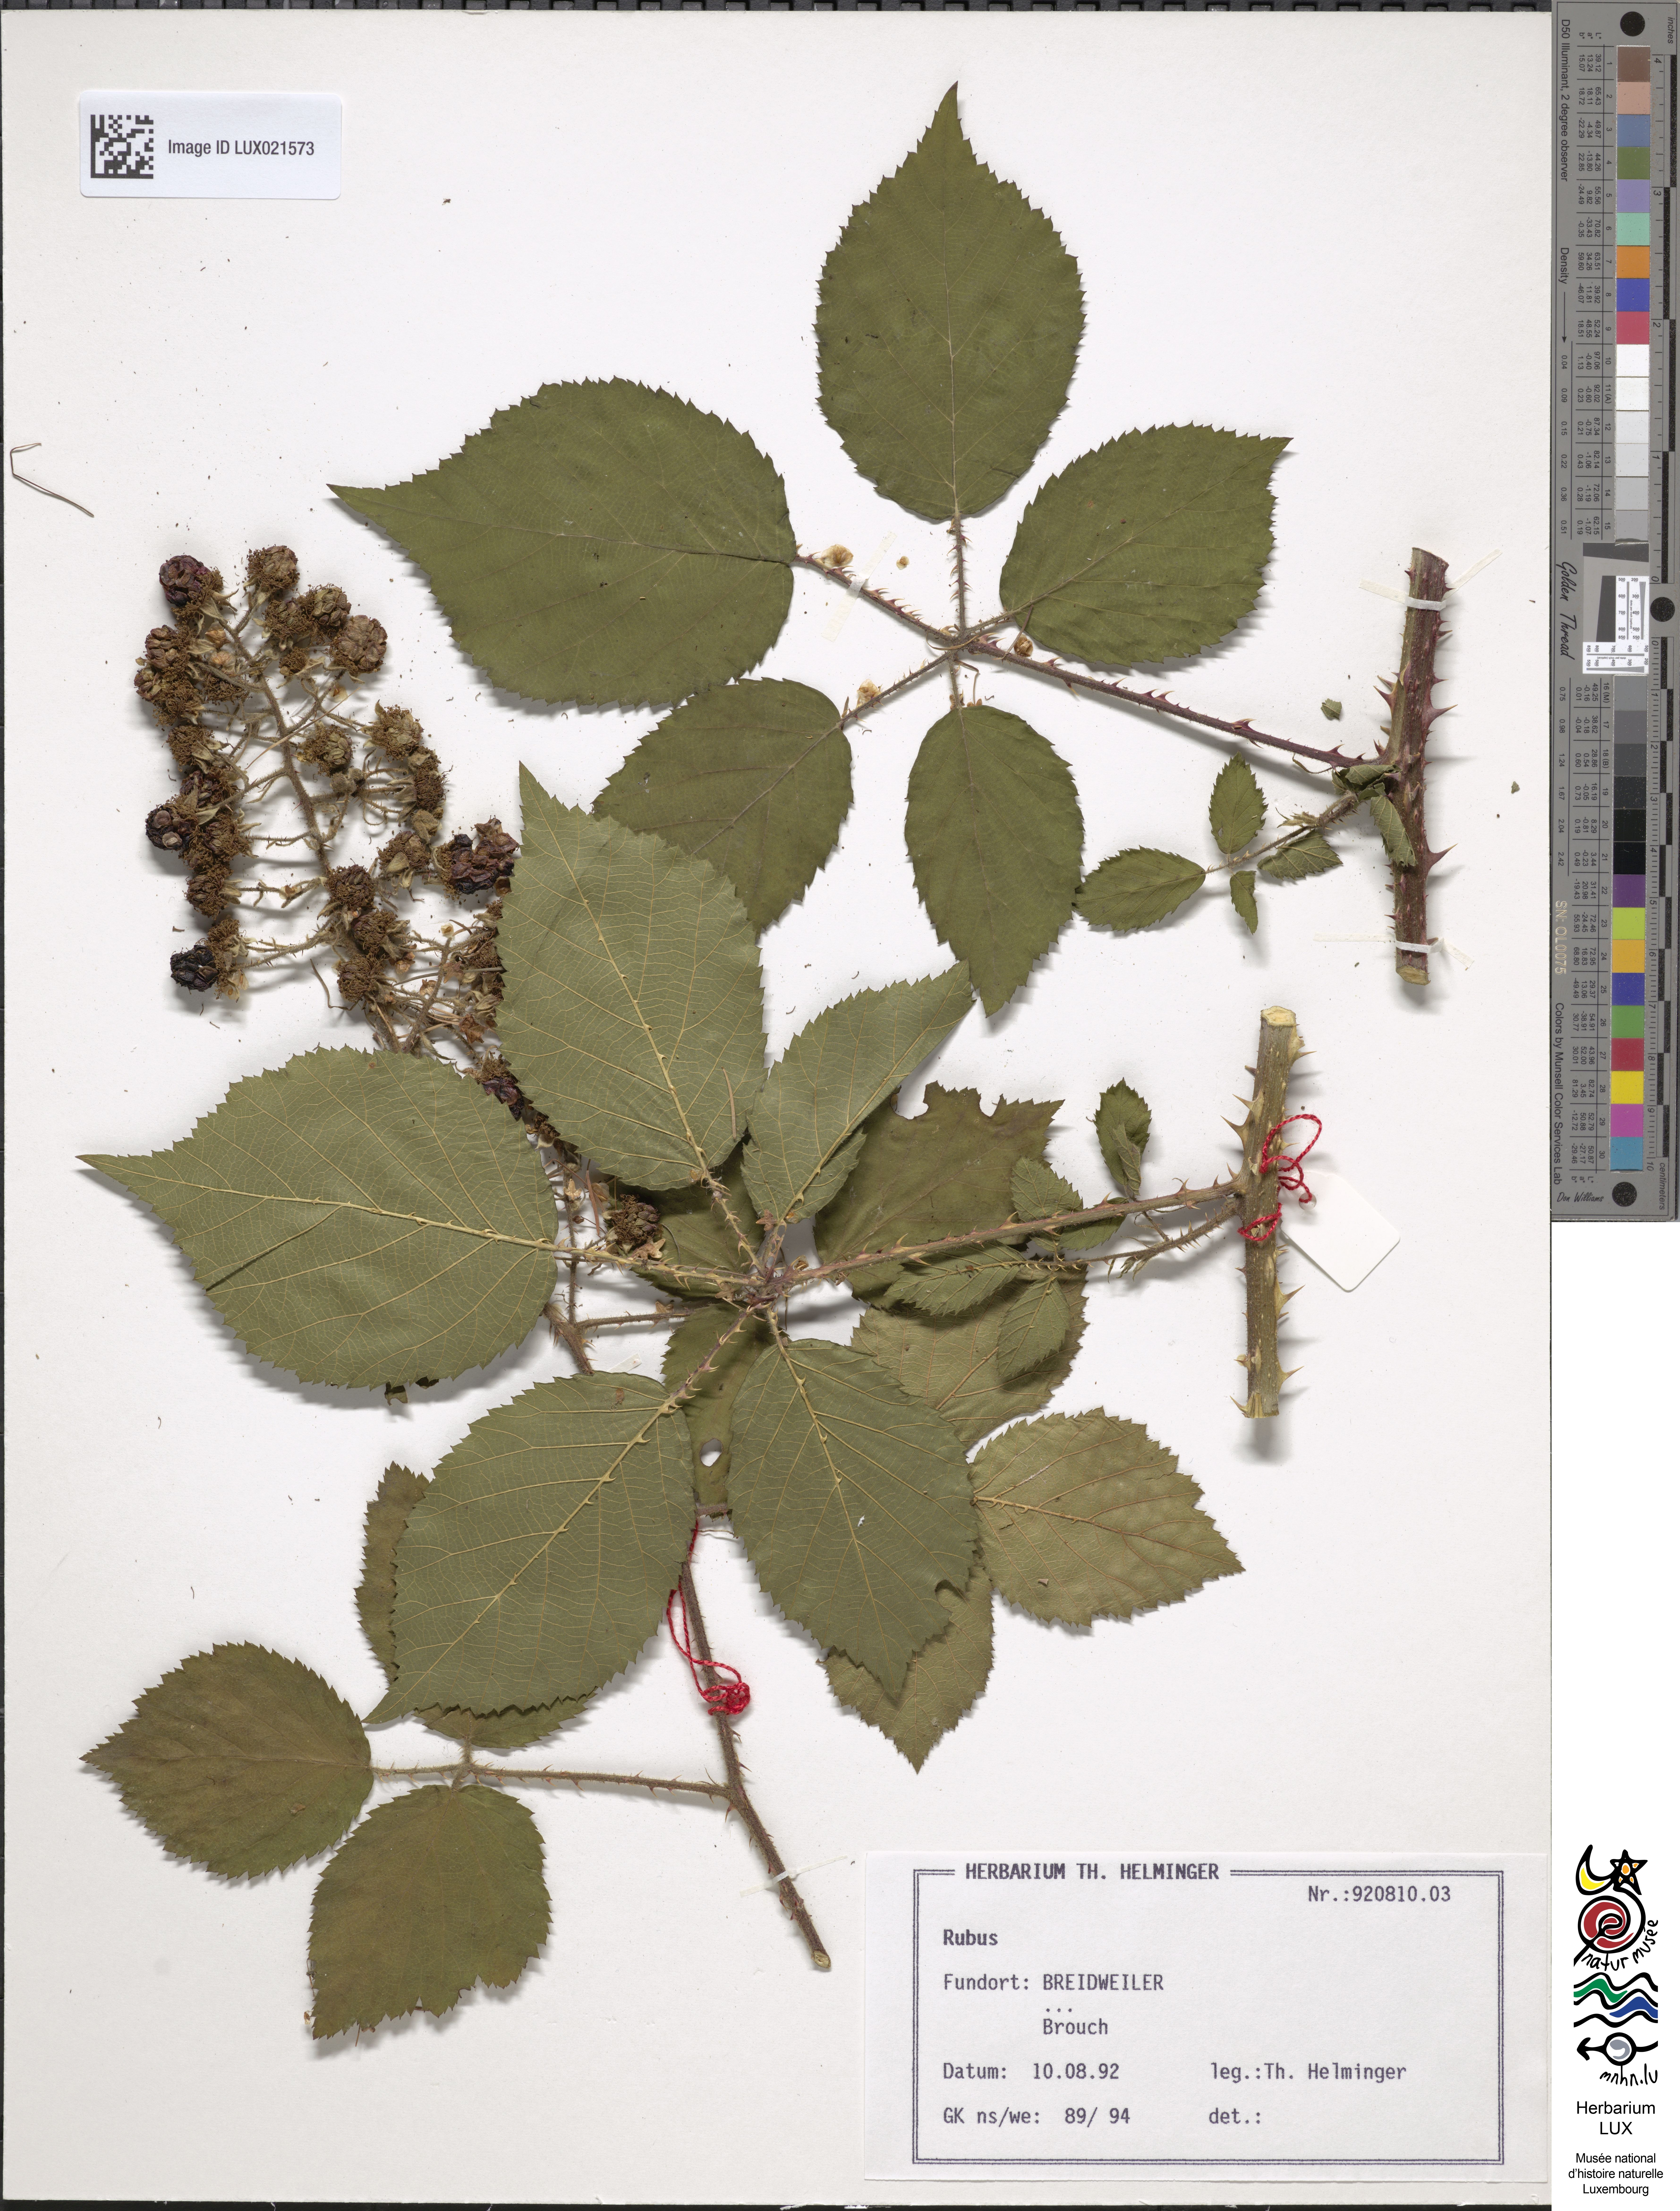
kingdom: Plantae
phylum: Tracheophyta
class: Magnoliopsida
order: Rosales
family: Rosaceae
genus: Rubus
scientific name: Rubus
